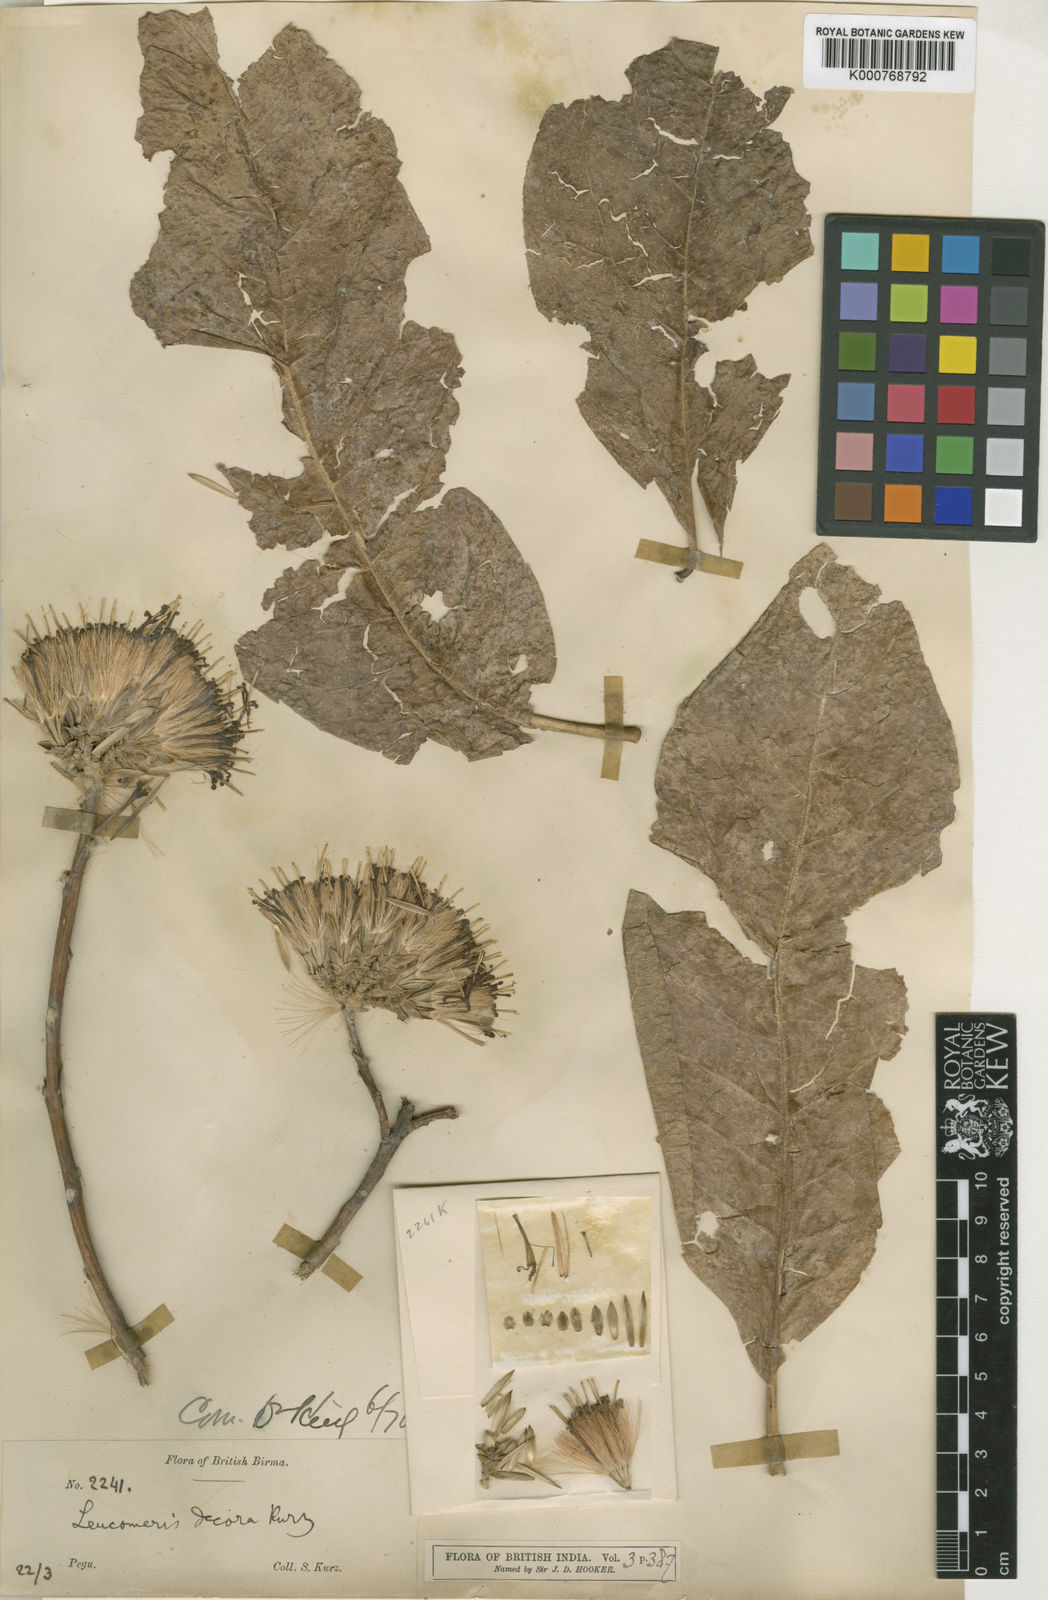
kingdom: Plantae
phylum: Tracheophyta
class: Magnoliopsida
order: Asterales
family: Asteraceae
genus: Leucomeris
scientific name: Leucomeris decora
